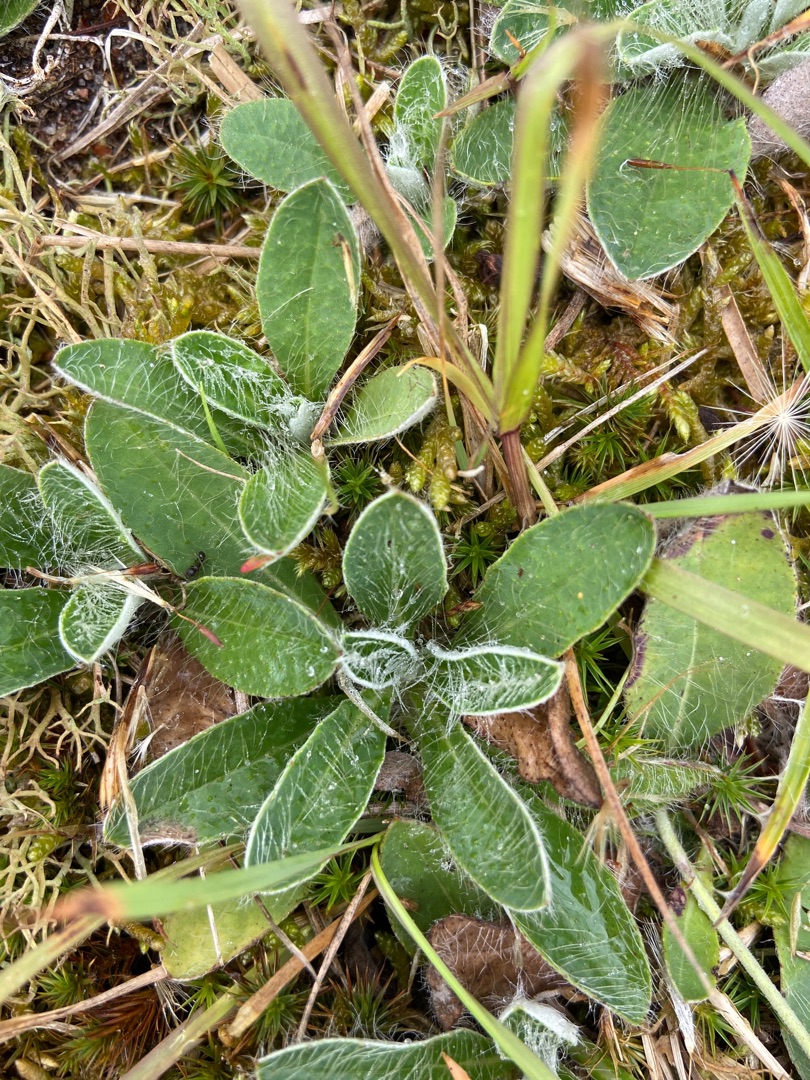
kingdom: Plantae
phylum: Tracheophyta
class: Magnoliopsida
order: Asterales
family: Asteraceae
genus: Pilosella
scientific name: Pilosella officinarum
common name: Håret høgeurt
